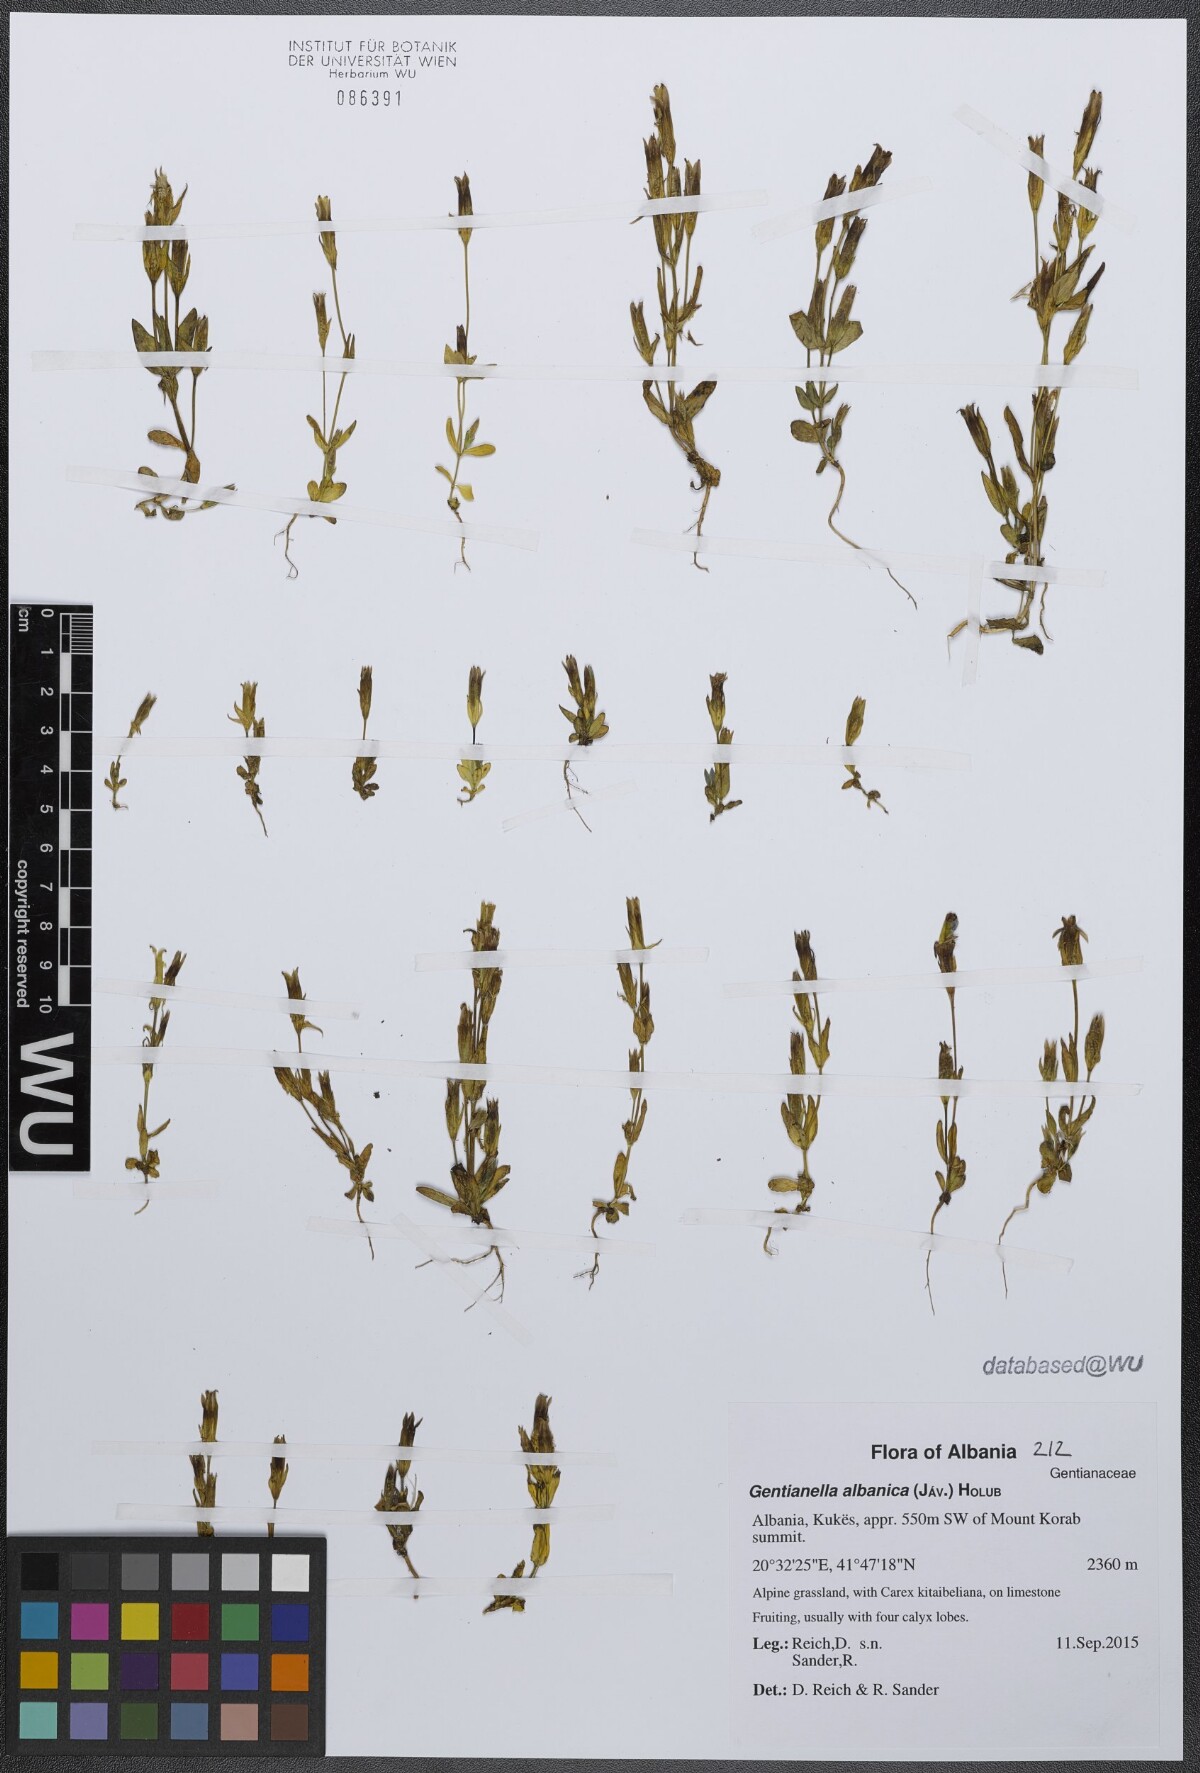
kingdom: Plantae
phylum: Tracheophyta
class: Magnoliopsida
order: Gentianales
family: Gentianaceae
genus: Gentianella
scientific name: Gentianella albanica
